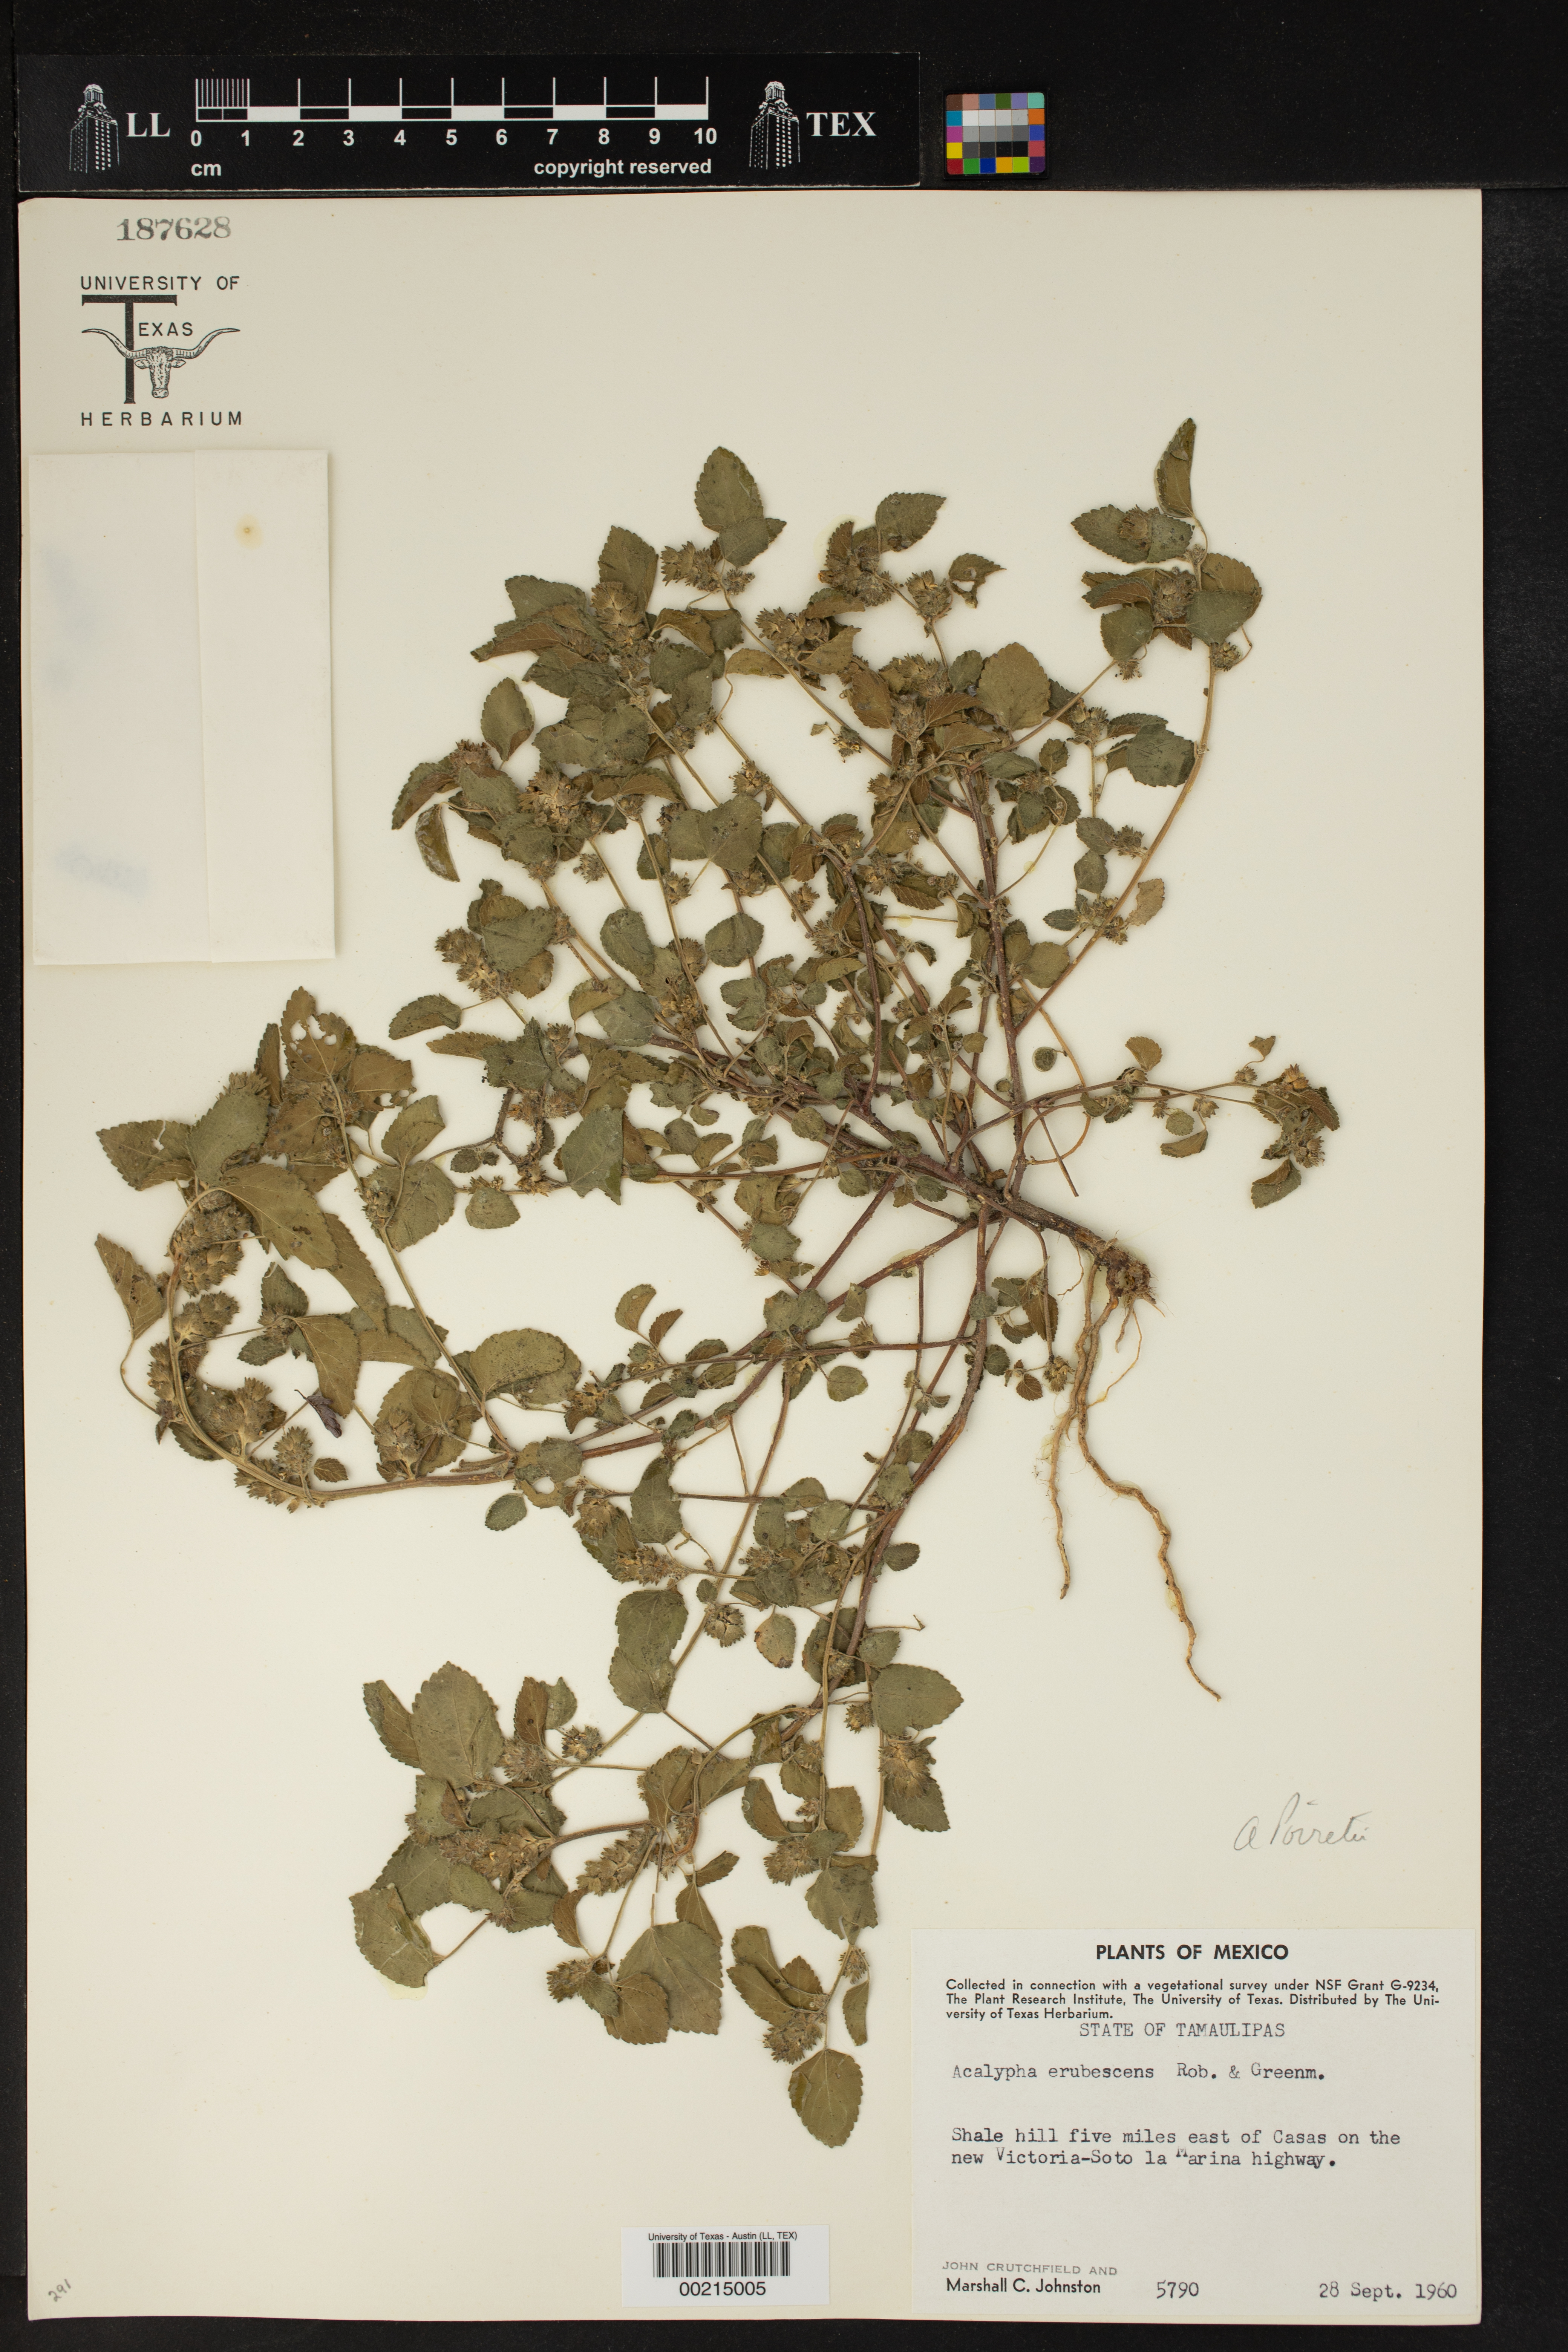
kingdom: Plantae
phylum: Tracheophyta
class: Magnoliopsida
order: Malpighiales
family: Euphorbiaceae
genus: Acalypha
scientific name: Acalypha poiretii
